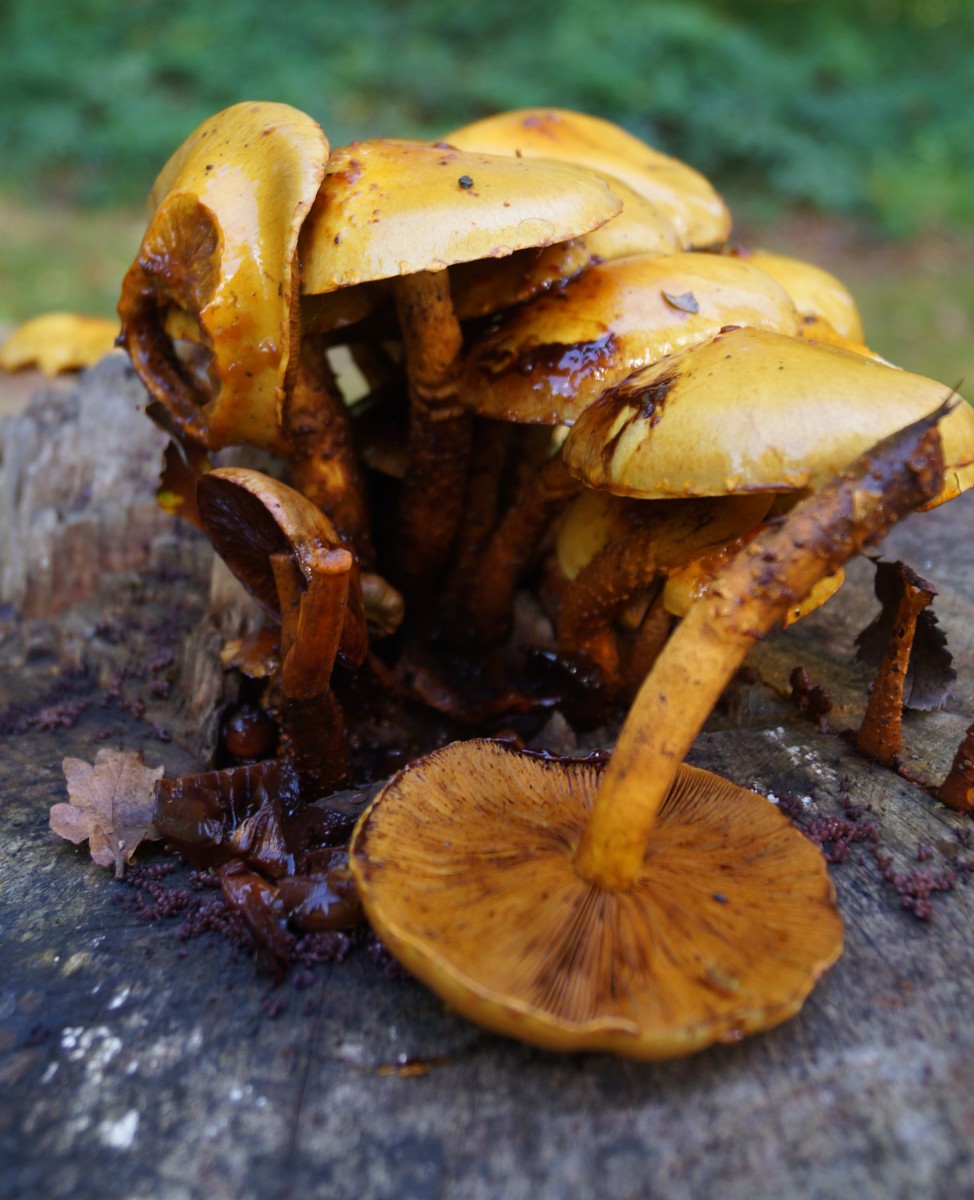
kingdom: Fungi
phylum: Basidiomycota
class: Agaricomycetes
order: Agaricales
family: Strophariaceae
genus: Pholiota
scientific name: Pholiota adiposa
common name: højtsiddende skælhat
